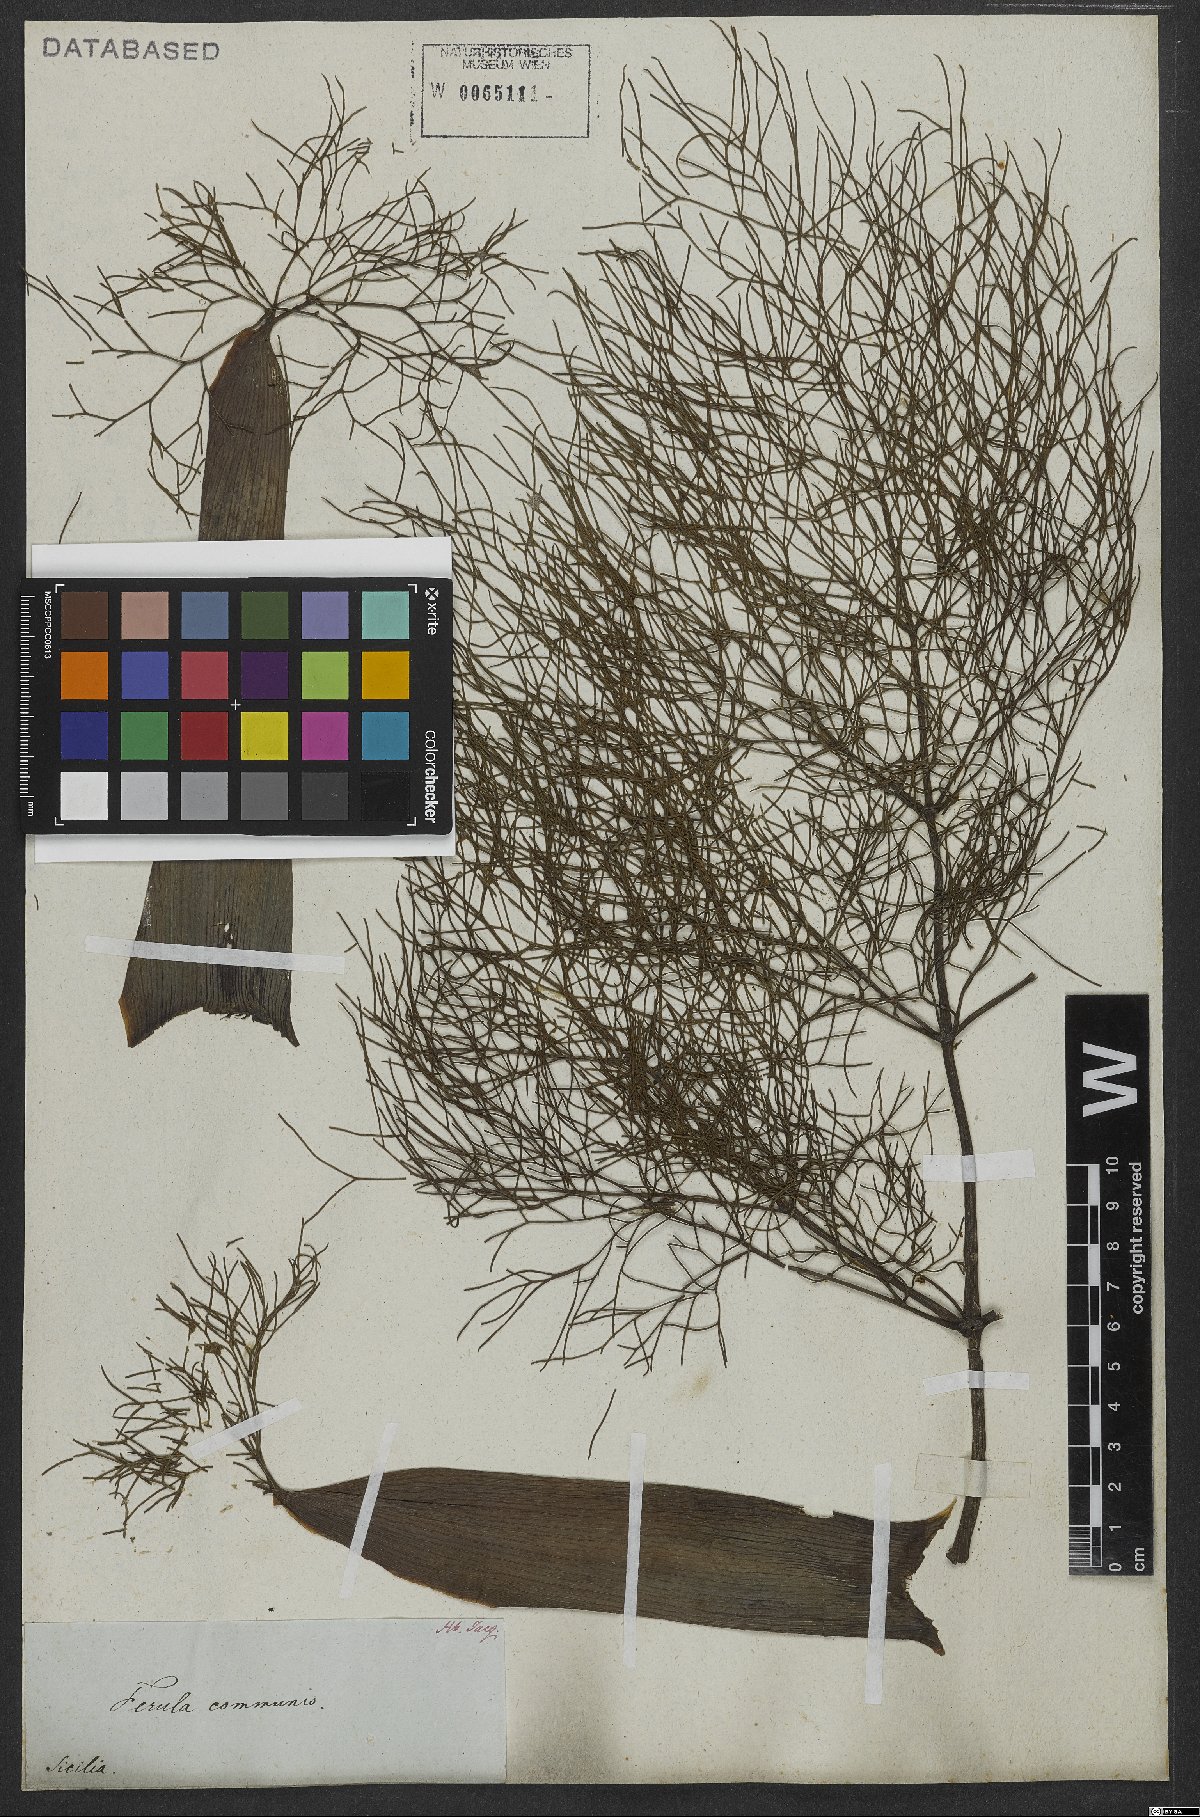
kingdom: Plantae
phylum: Tracheophyta
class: Magnoliopsida
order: Apiales
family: Apiaceae
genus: Ferula
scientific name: Ferula communis
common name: Giant fennel
